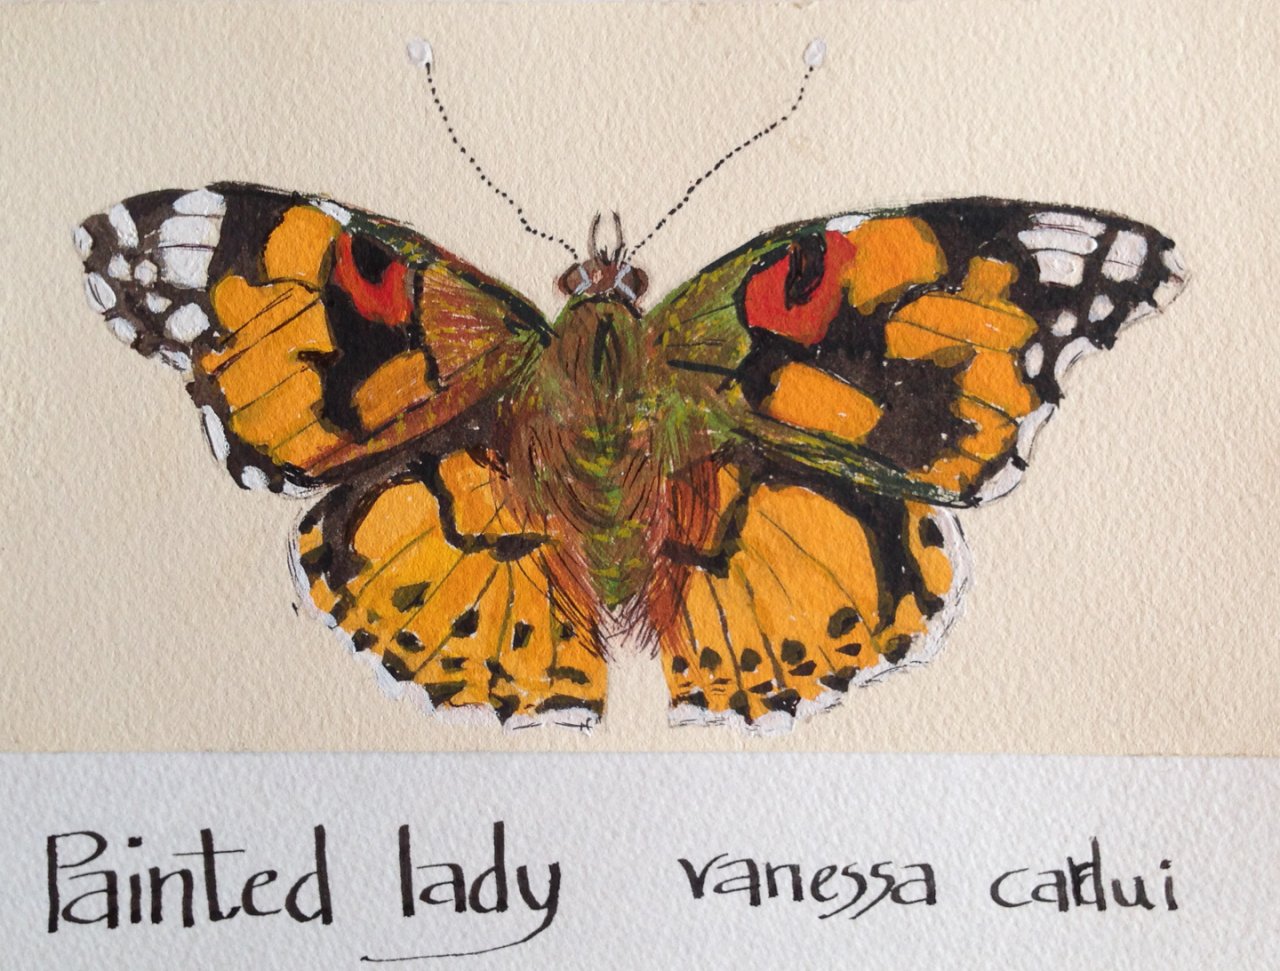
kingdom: Animalia
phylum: Arthropoda
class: Insecta
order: Lepidoptera
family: Nymphalidae
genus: Vanessa
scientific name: Vanessa cardui
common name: Painted Lady
